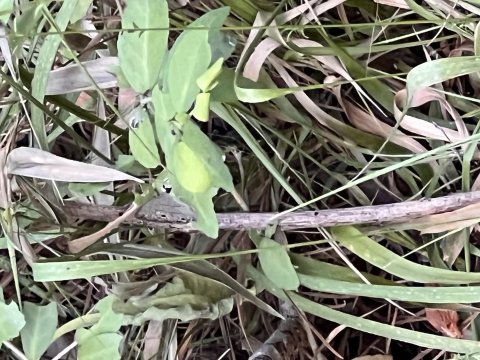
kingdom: Animalia
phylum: Arthropoda
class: Insecta
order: Lepidoptera
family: Nymphalidae
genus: Hermeuptychia
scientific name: Hermeuptychia hermes
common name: Carolina Satyr
